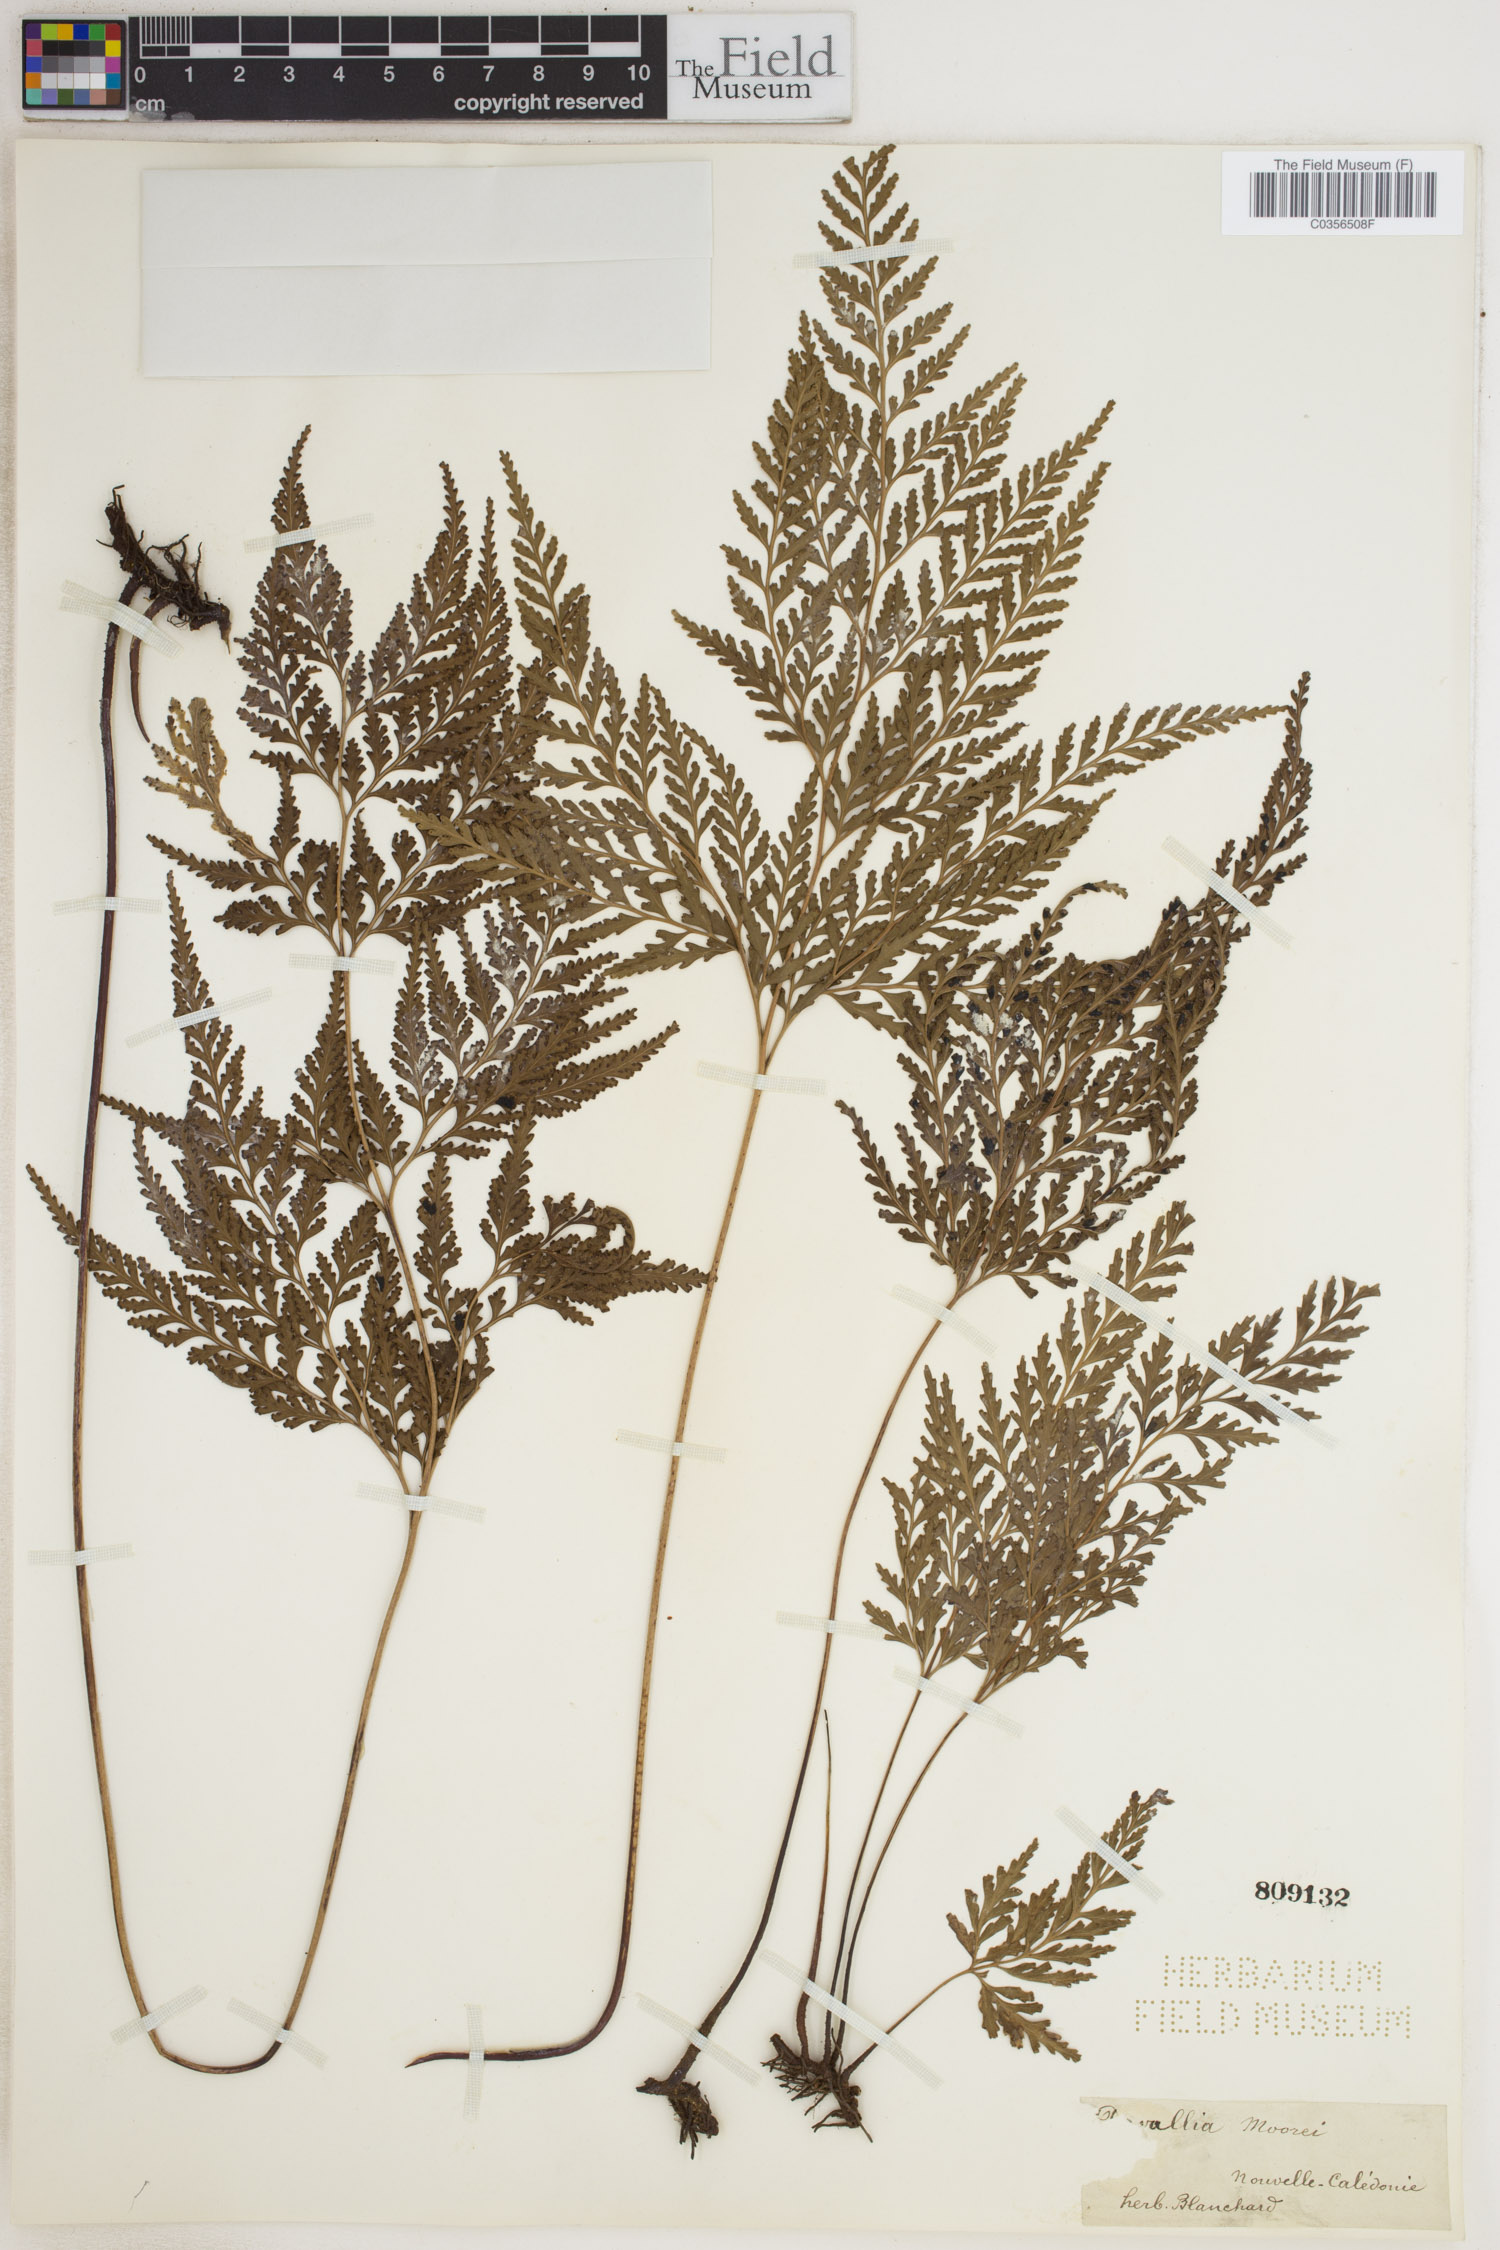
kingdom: Plantae
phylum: Tracheophyta
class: Polypodiopsida
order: Polypodiales
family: Lindsaeaceae
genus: Tapeinidium
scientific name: Tapeinidium moorei
